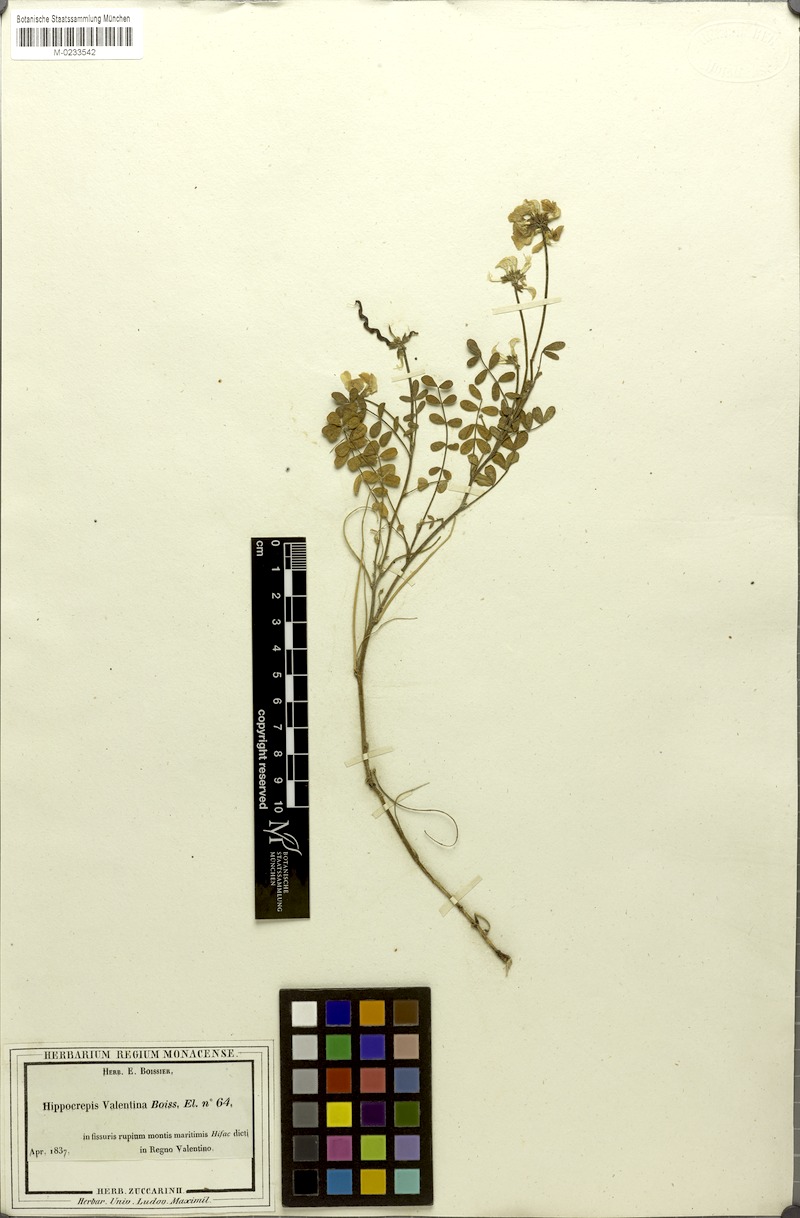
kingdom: Plantae
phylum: Tracheophyta
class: Magnoliopsida
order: Fabales
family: Fabaceae
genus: Hippocrepis
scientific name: Hippocrepis valentina
